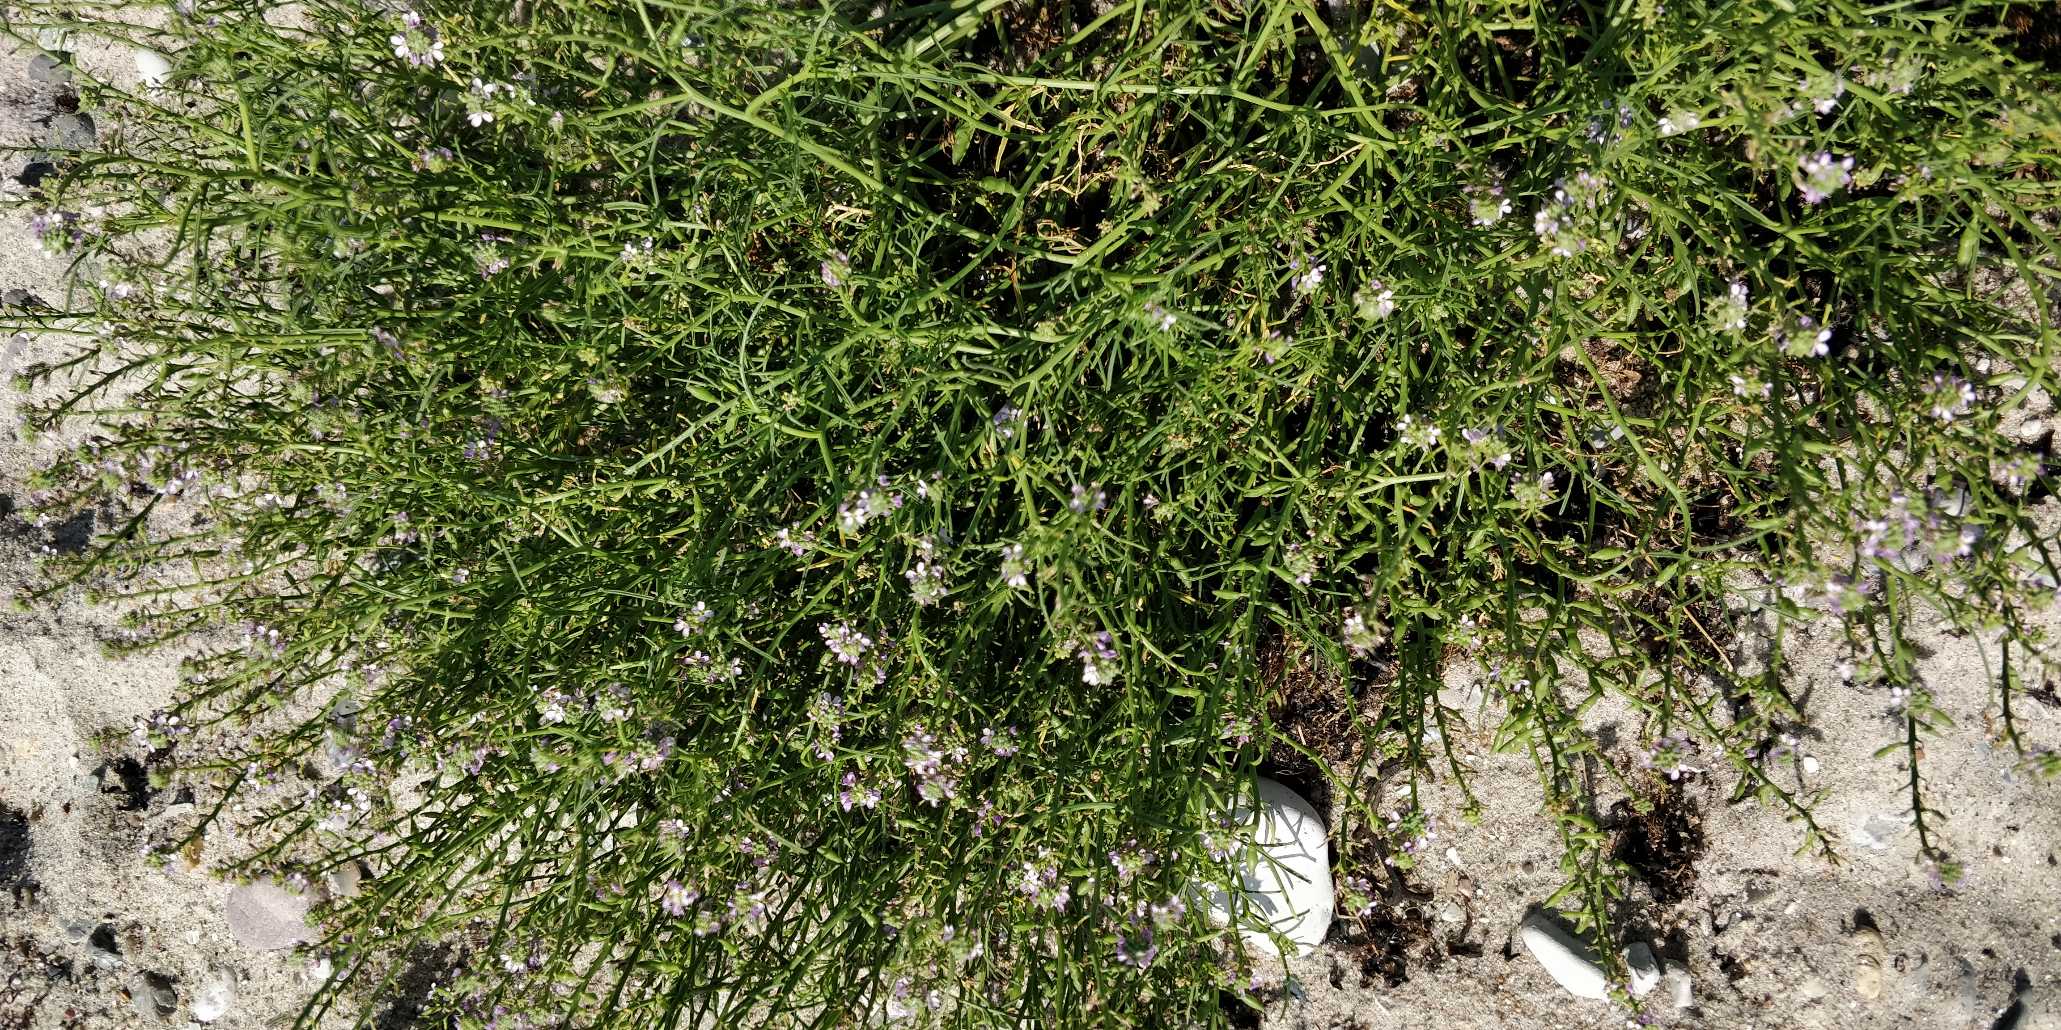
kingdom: Plantae
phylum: Tracheophyta
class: Magnoliopsida
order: Brassicales
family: Brassicaceae
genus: Cakile
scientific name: Cakile maritima
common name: Strandsennep
